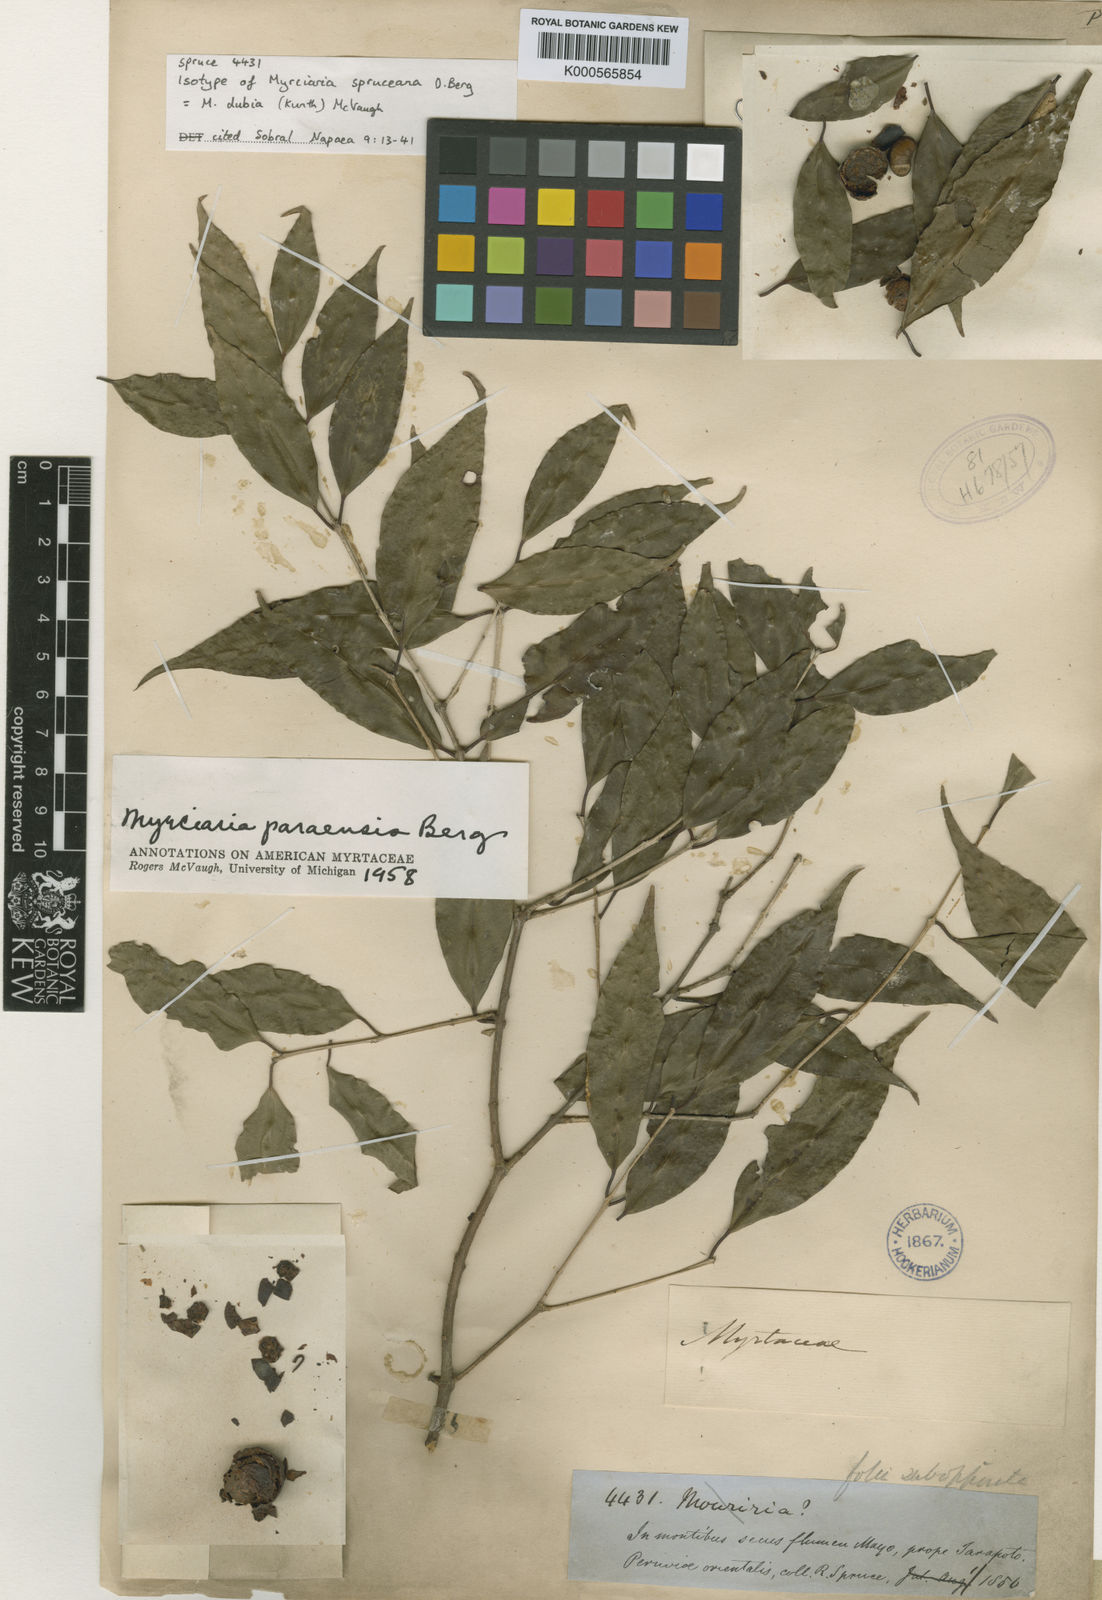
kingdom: Plantae
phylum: Tracheophyta
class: Magnoliopsida
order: Myrtales
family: Myrtaceae
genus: Myrciaria
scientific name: Myrciaria floribunda
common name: Guavaberry
